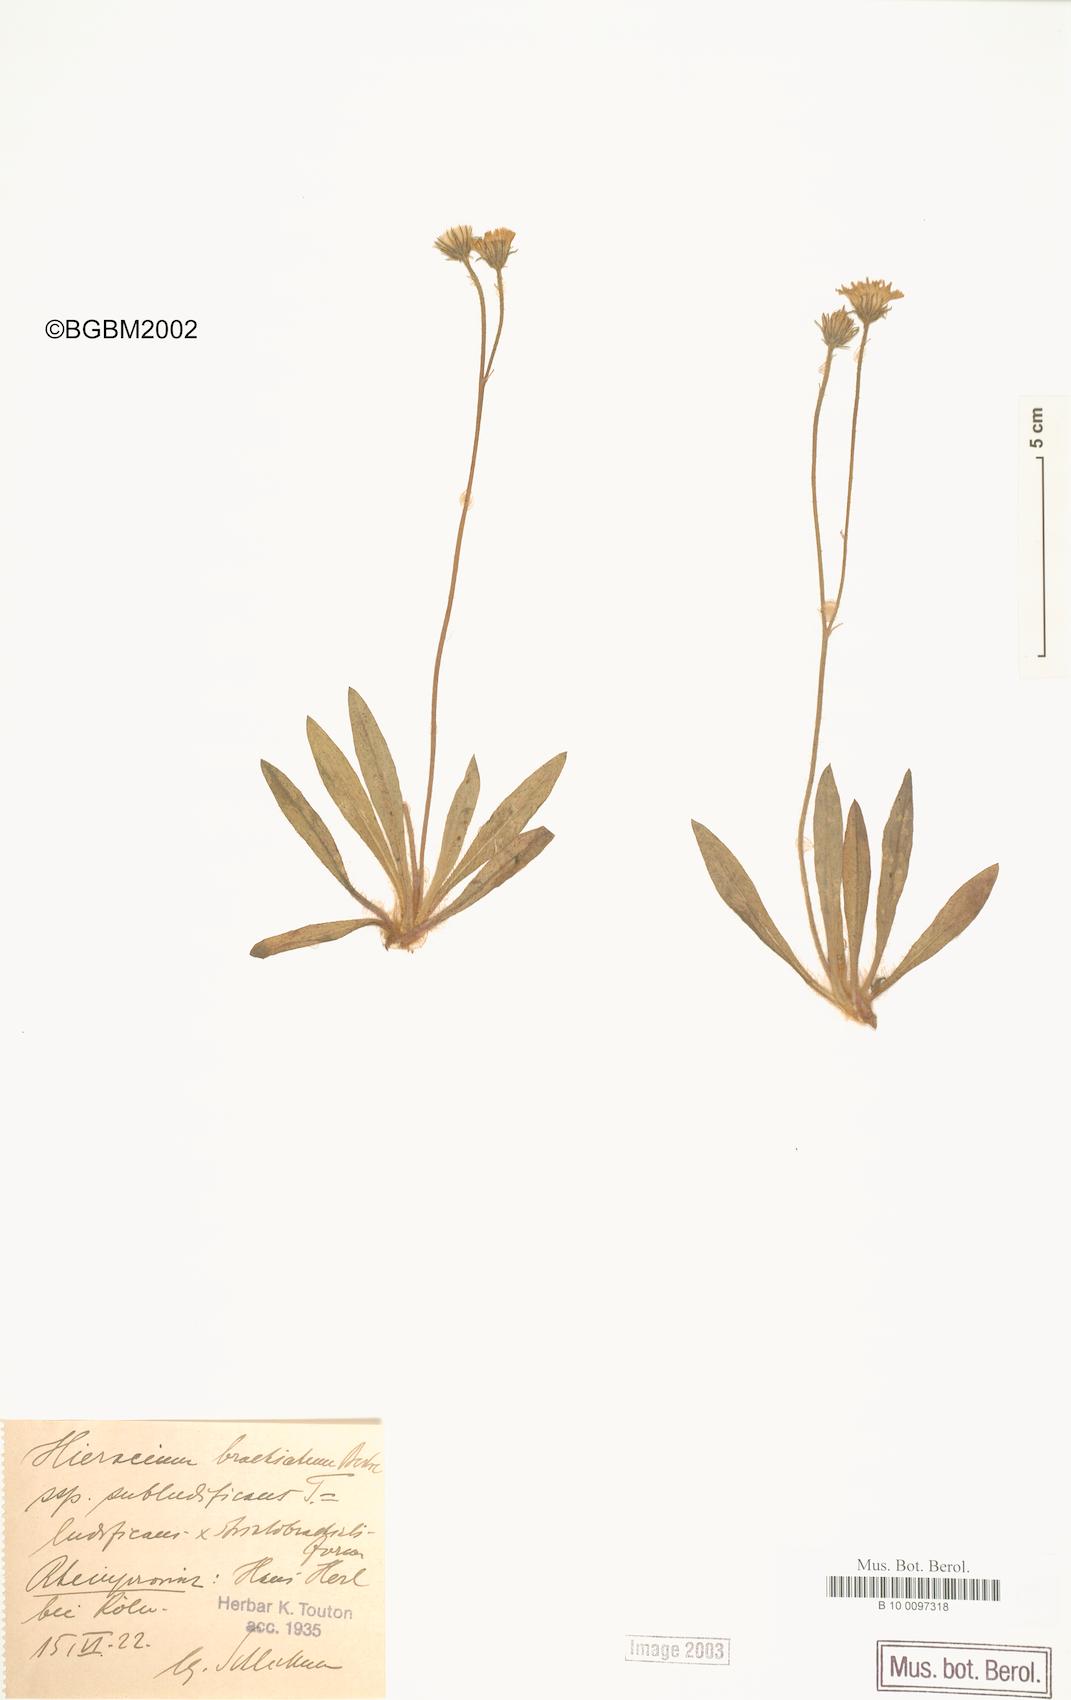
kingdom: Plantae
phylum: Tracheophyta
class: Magnoliopsida
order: Asterales
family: Asteraceae
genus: Pilosella
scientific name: Pilosella acutifolia
